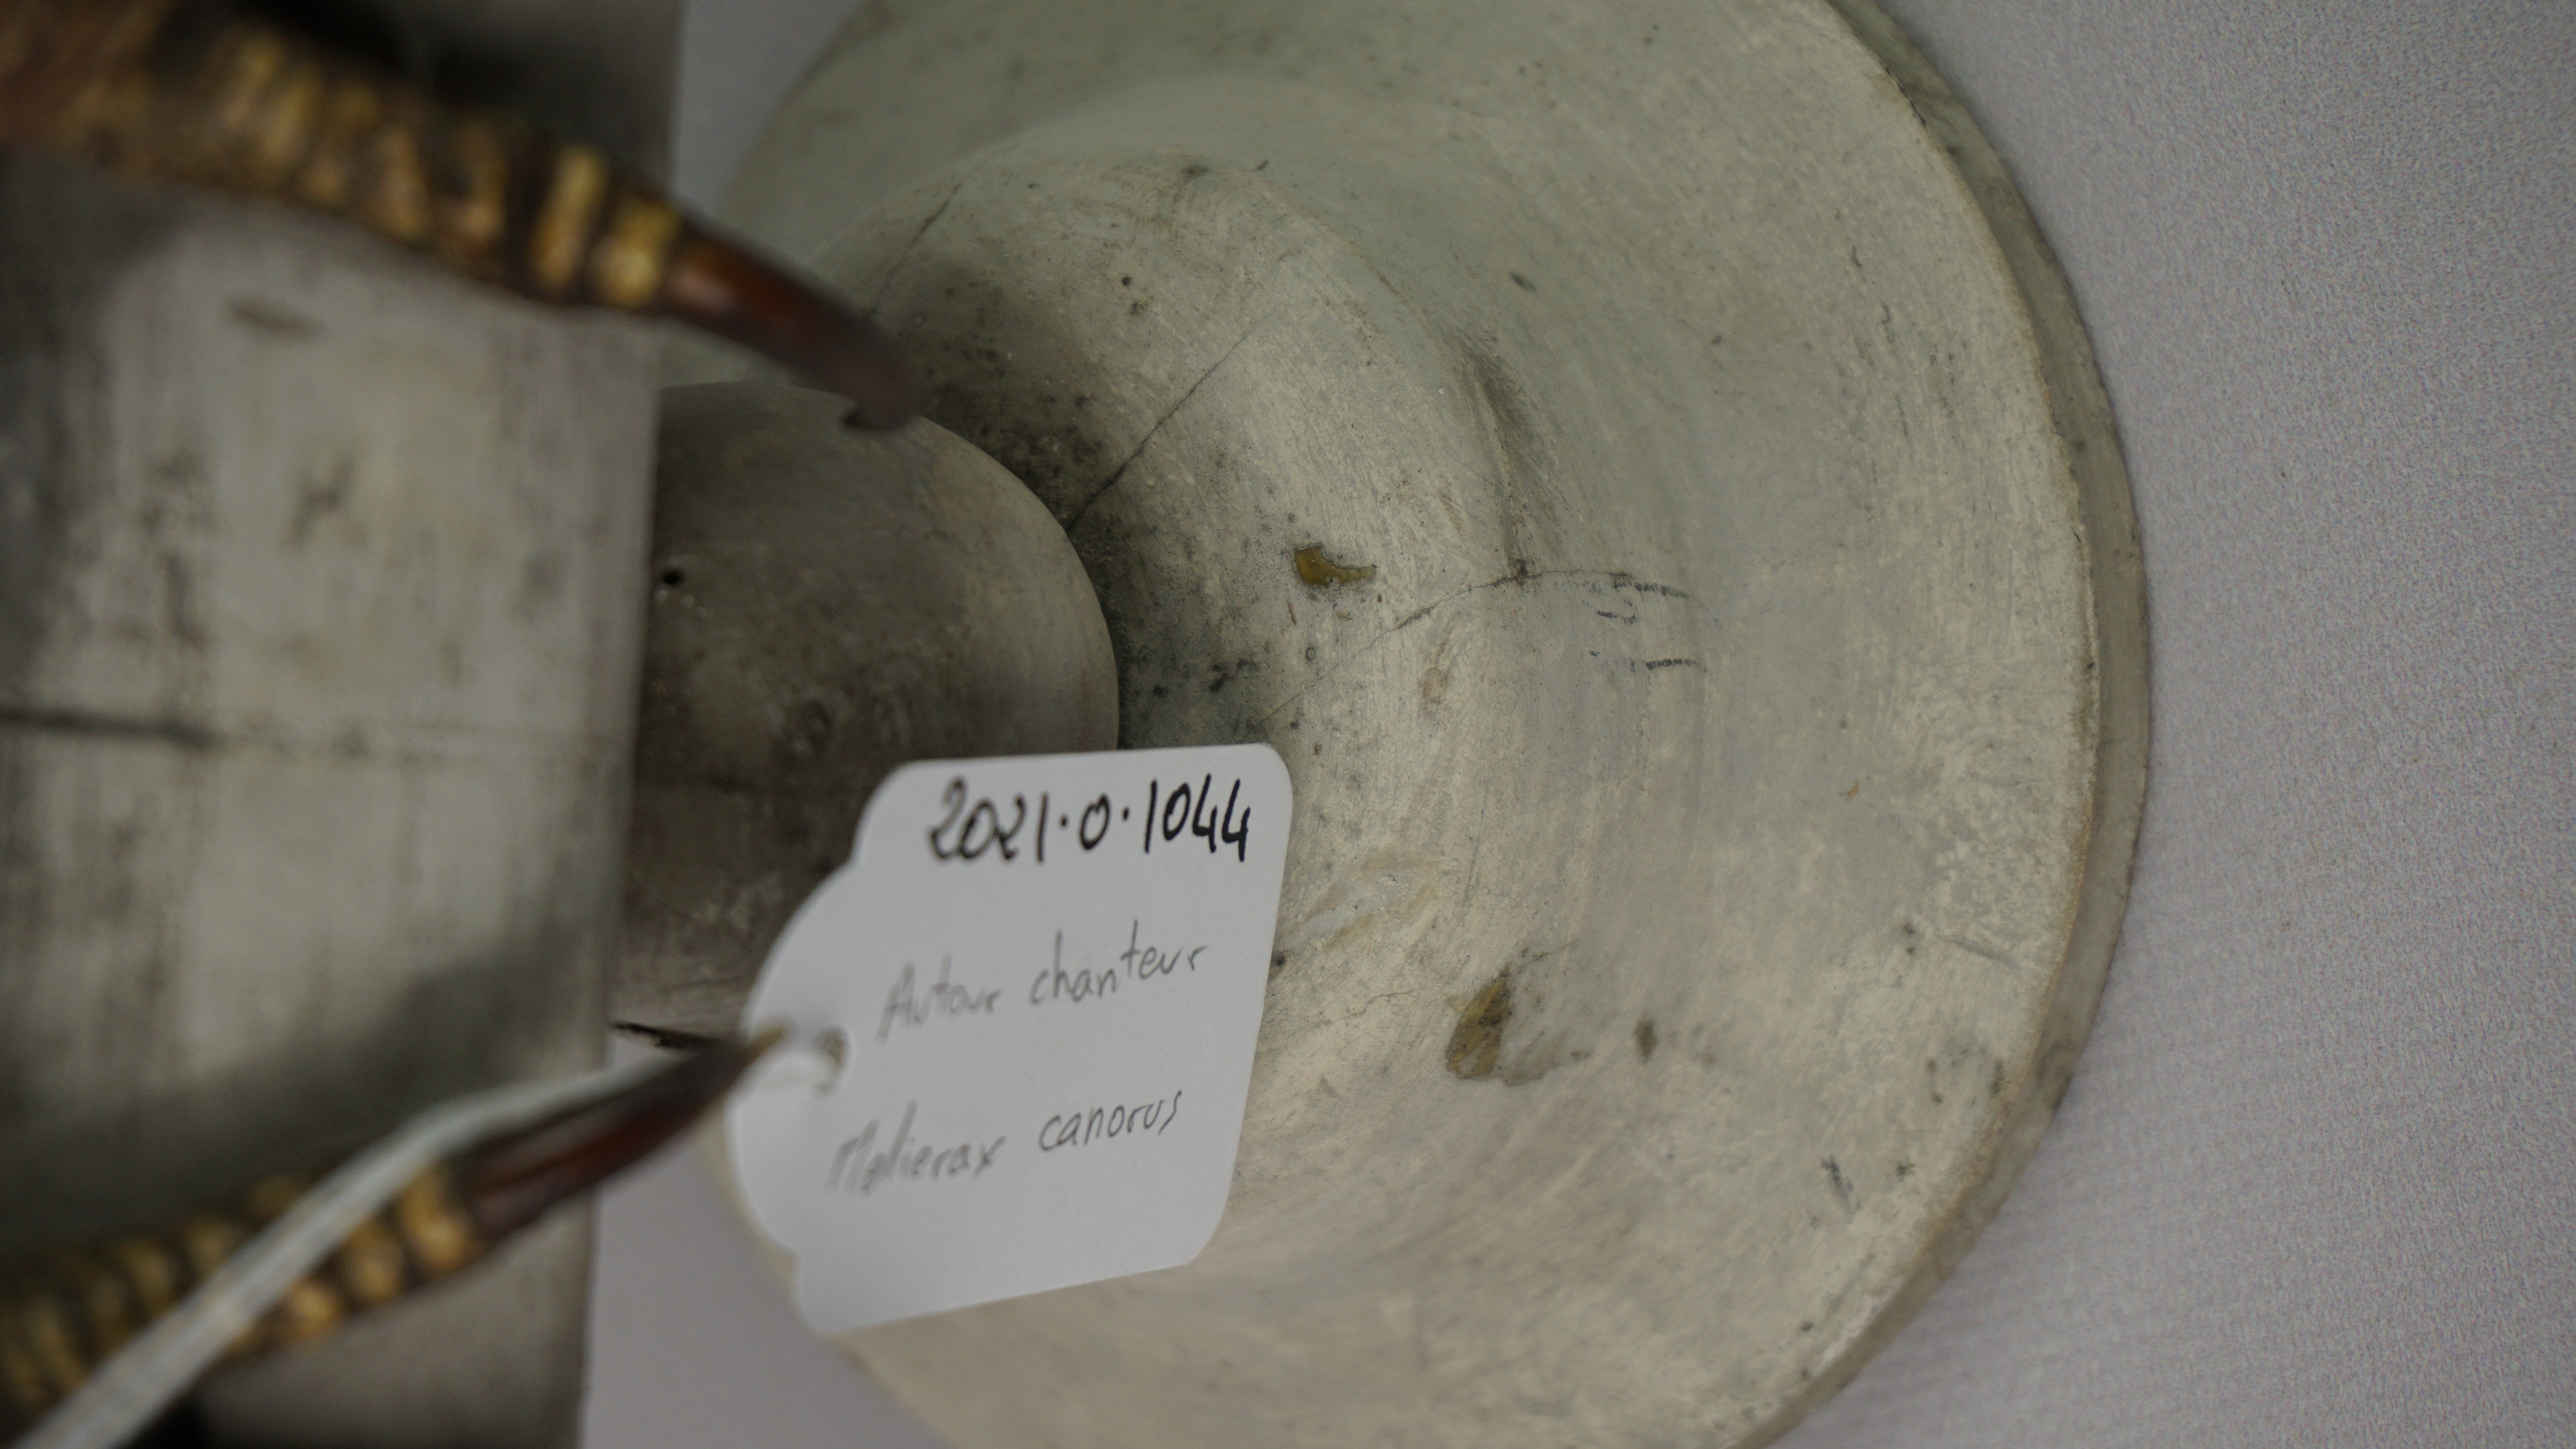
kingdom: Animalia
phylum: Chordata
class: Aves
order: Accipitriformes
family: Accipitridae
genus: Melierax
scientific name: Melierax canorus
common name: Pale chanting-goshawk
